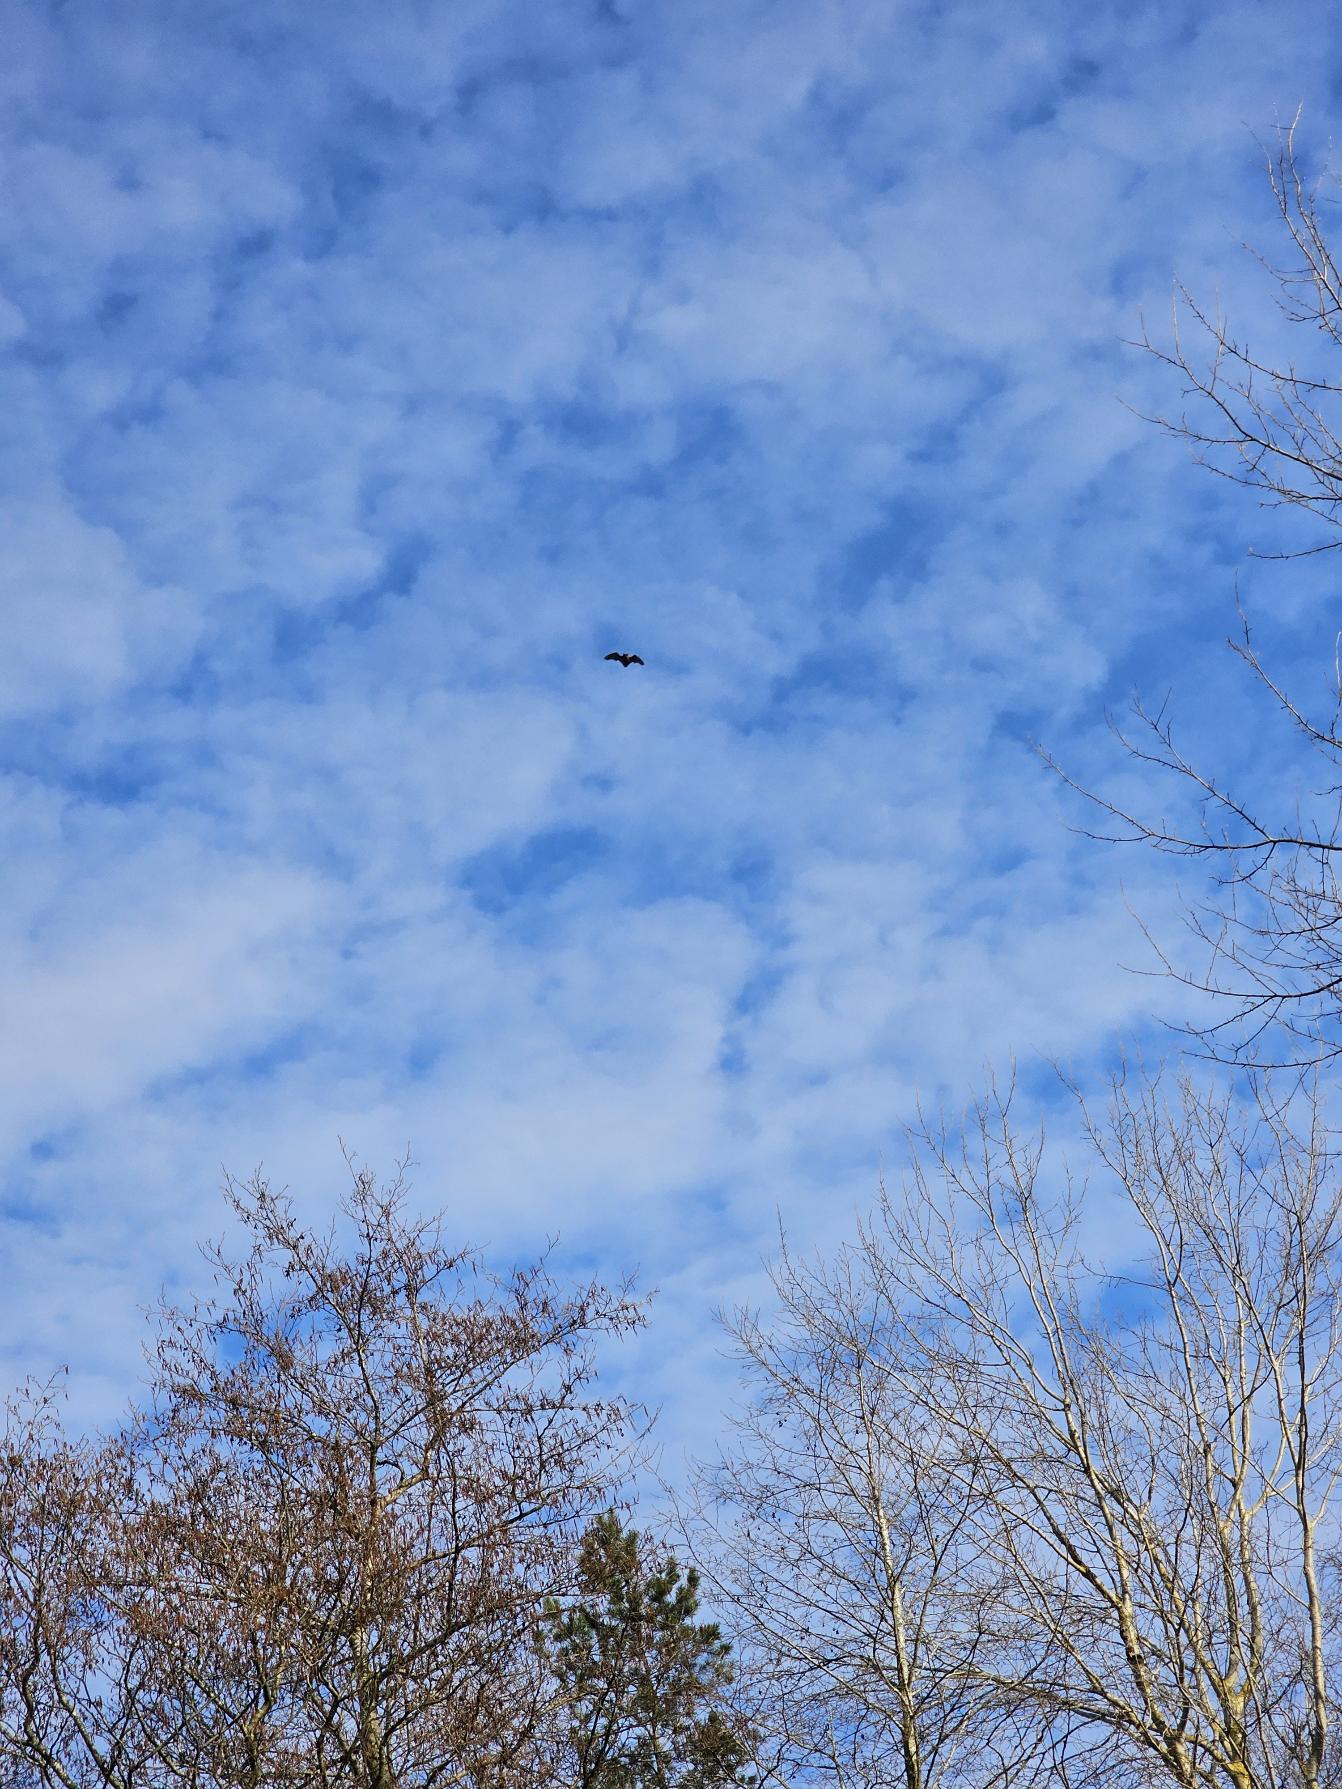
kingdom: Animalia
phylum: Chordata
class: Mammalia
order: Chiroptera
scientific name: Chiroptera
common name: Flagermus
